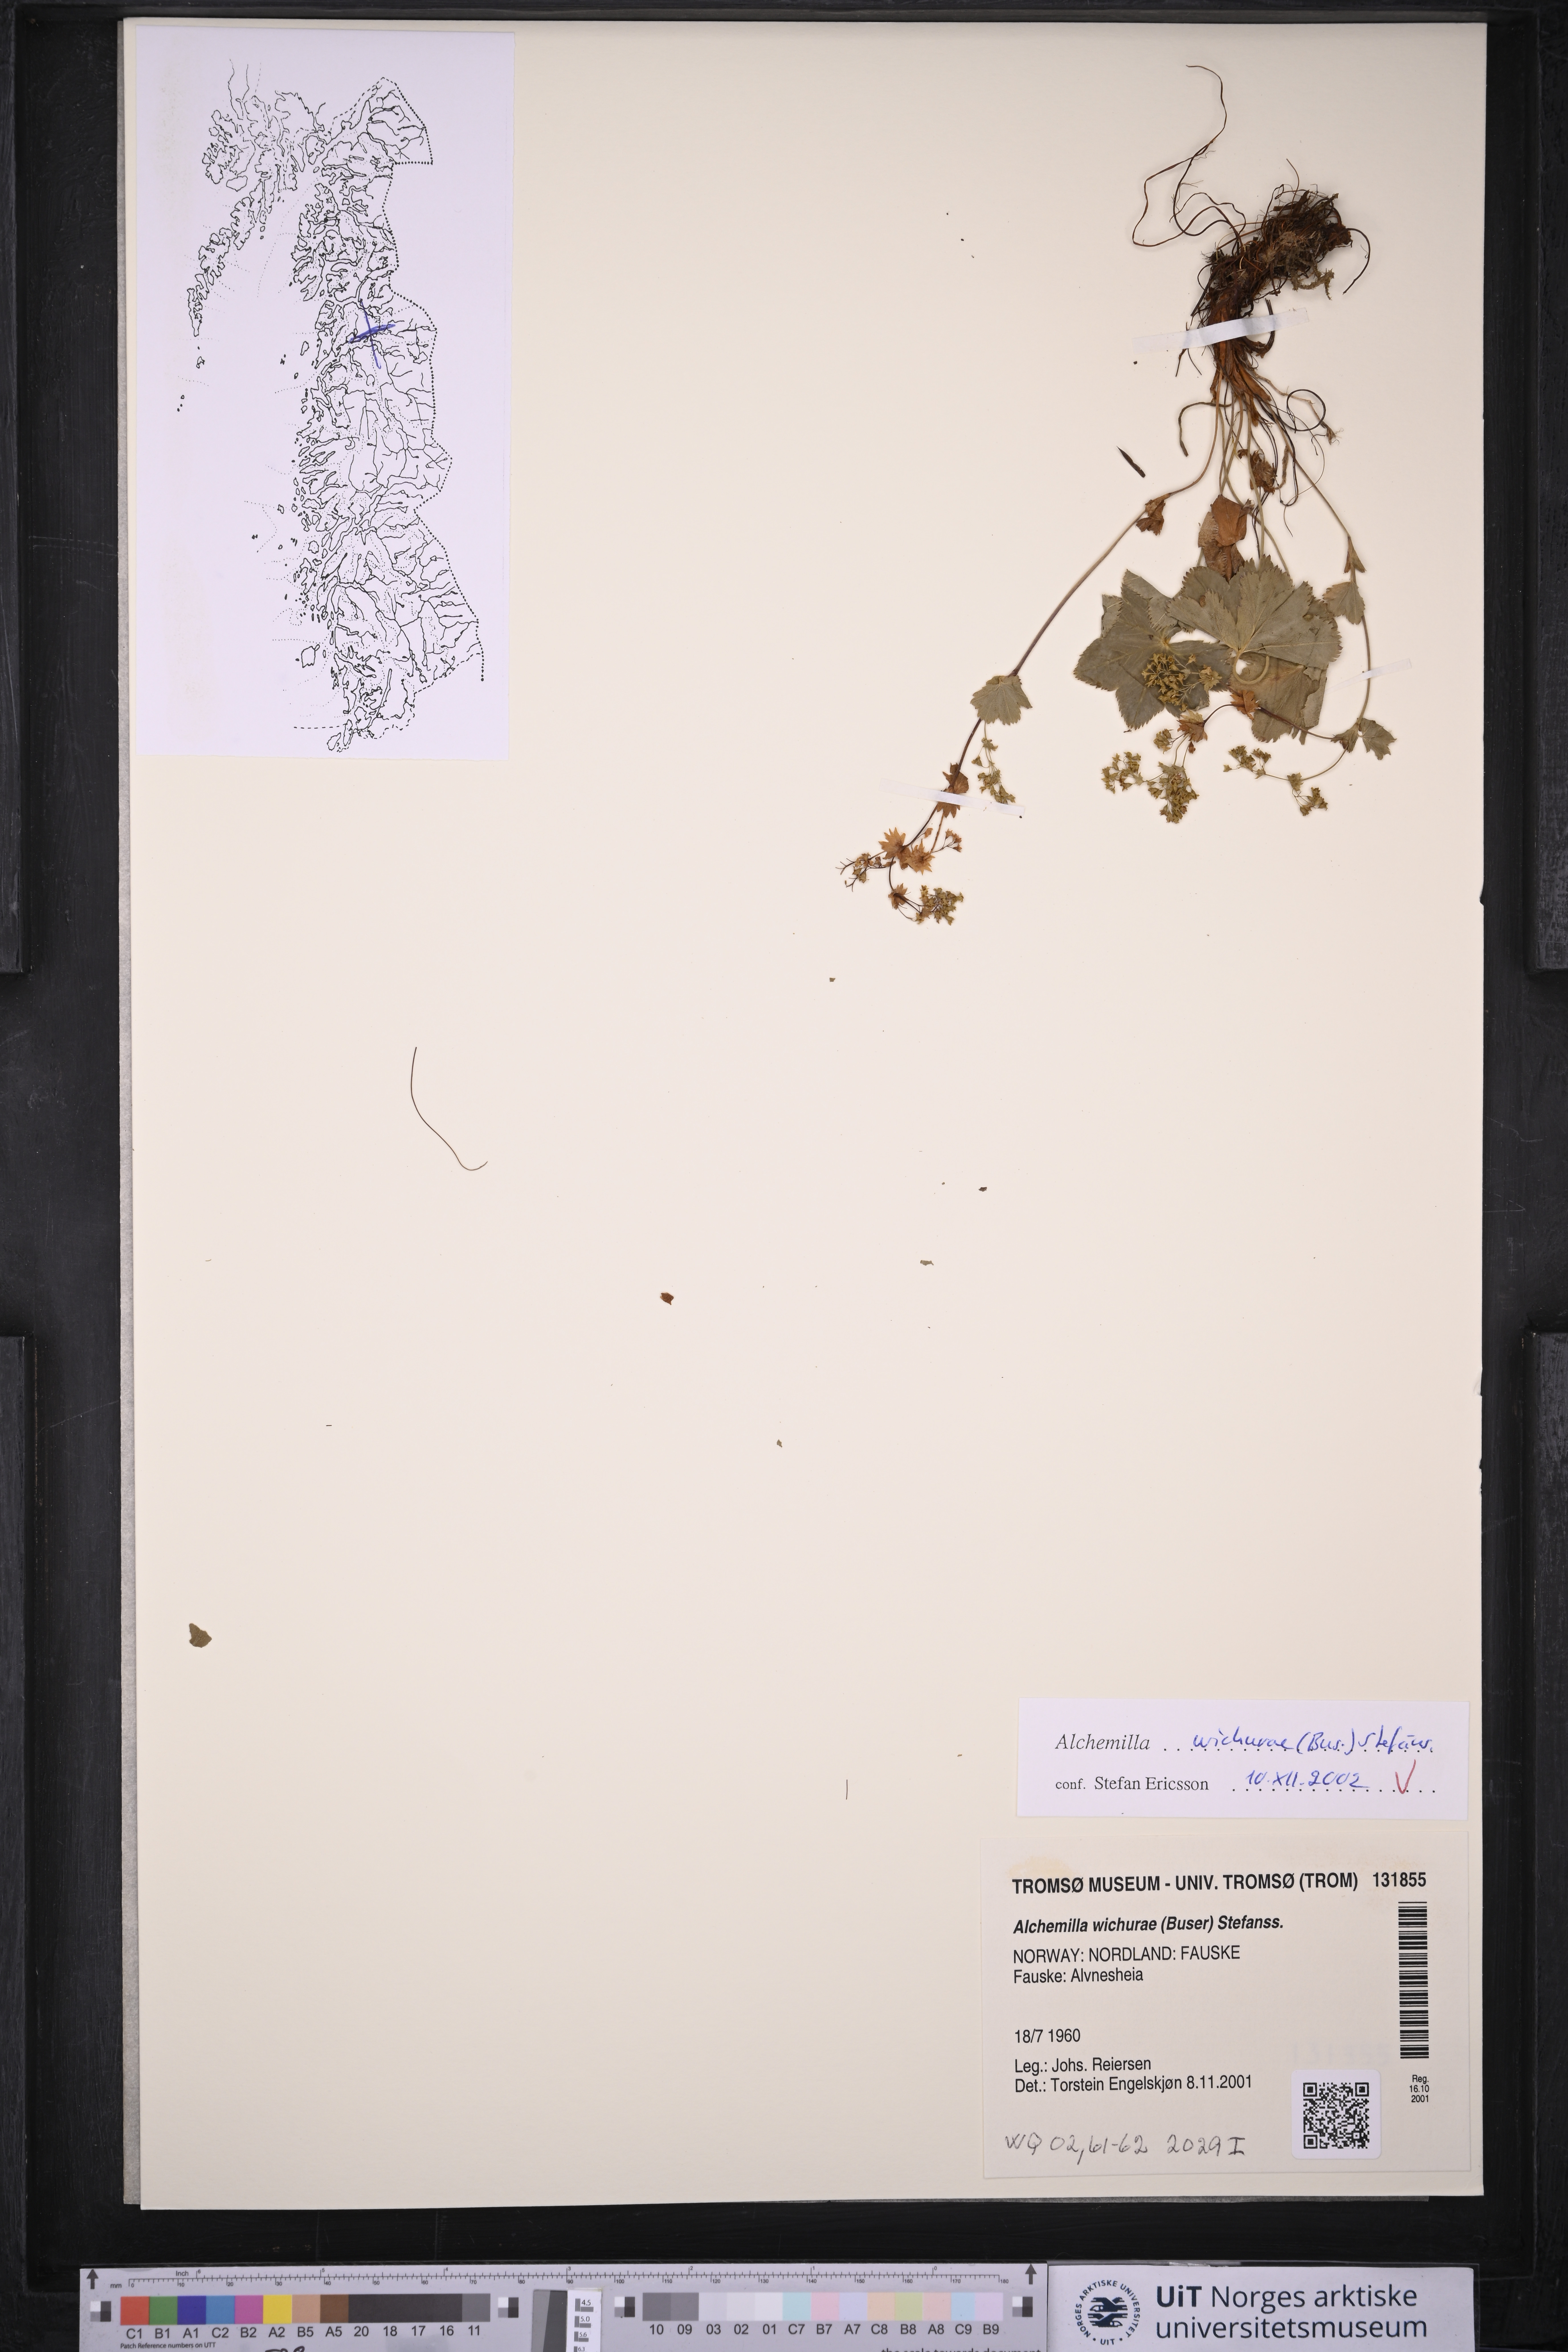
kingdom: Plantae
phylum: Tracheophyta
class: Magnoliopsida
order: Rosales
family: Rosaceae
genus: Alchemilla
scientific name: Alchemilla wichurae
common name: Rock lady's mantle
